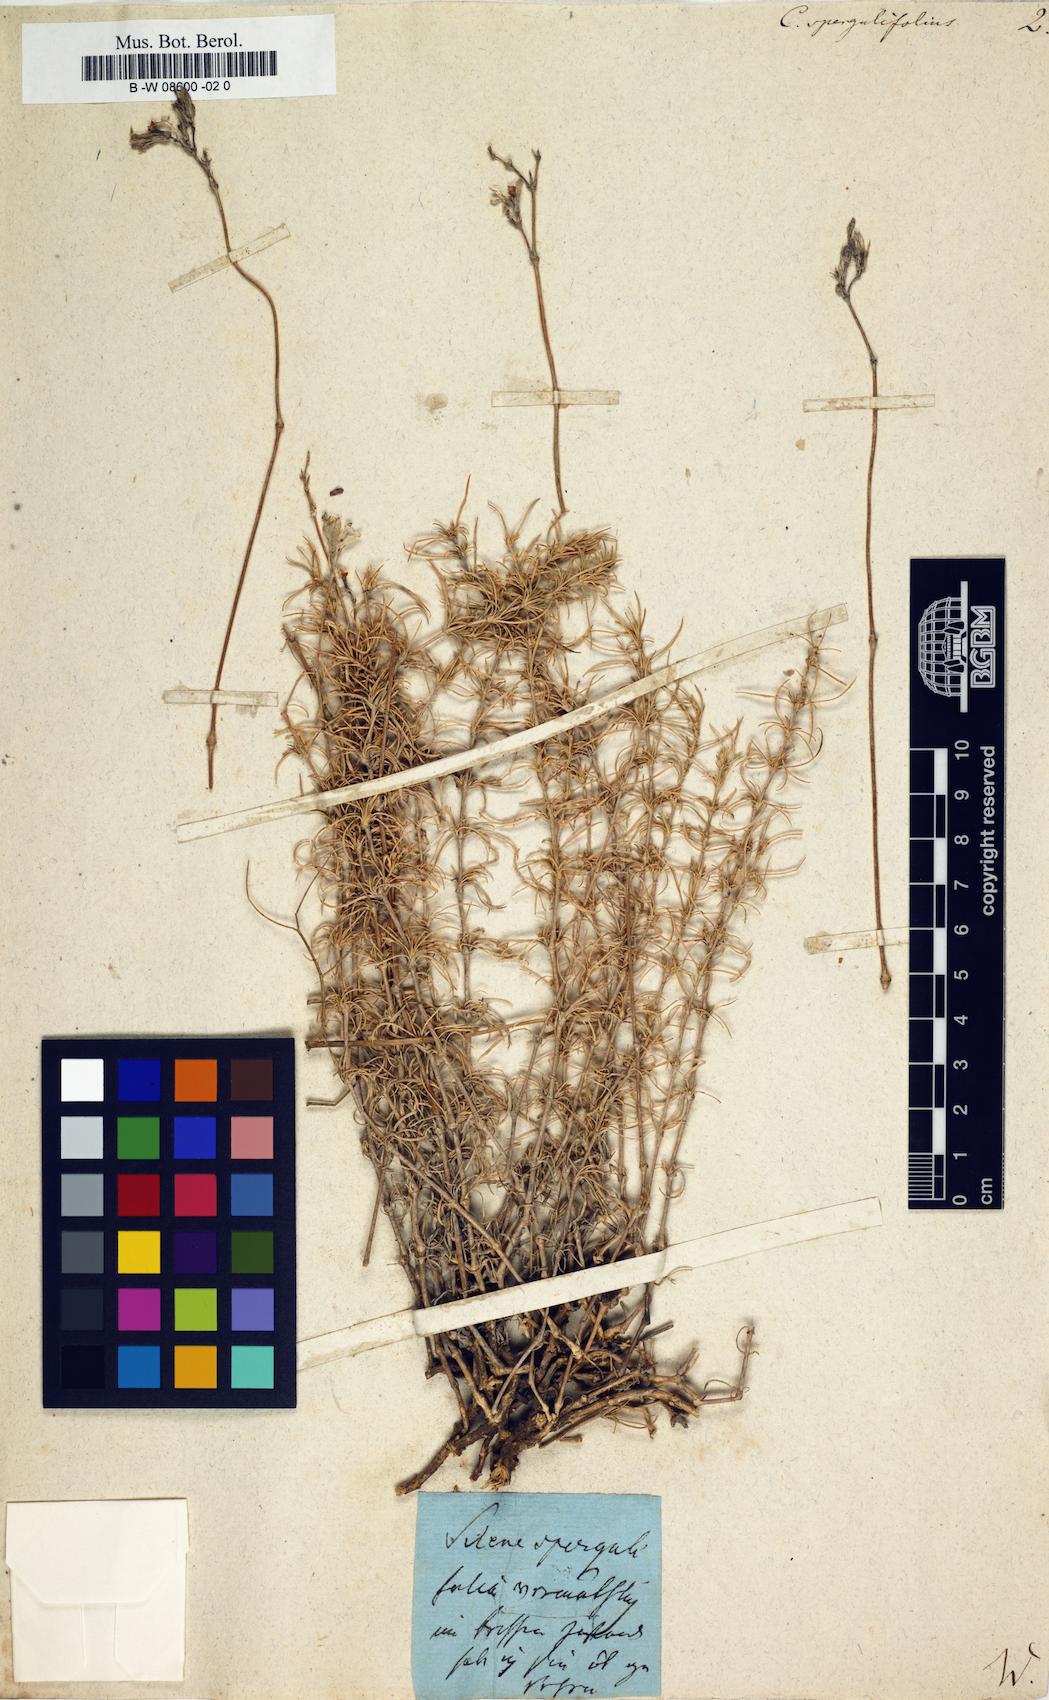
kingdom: Plantae
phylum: Tracheophyta
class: Magnoliopsida
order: Caryophyllales
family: Caryophyllaceae
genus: Silene
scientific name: Silene spergulifolia
